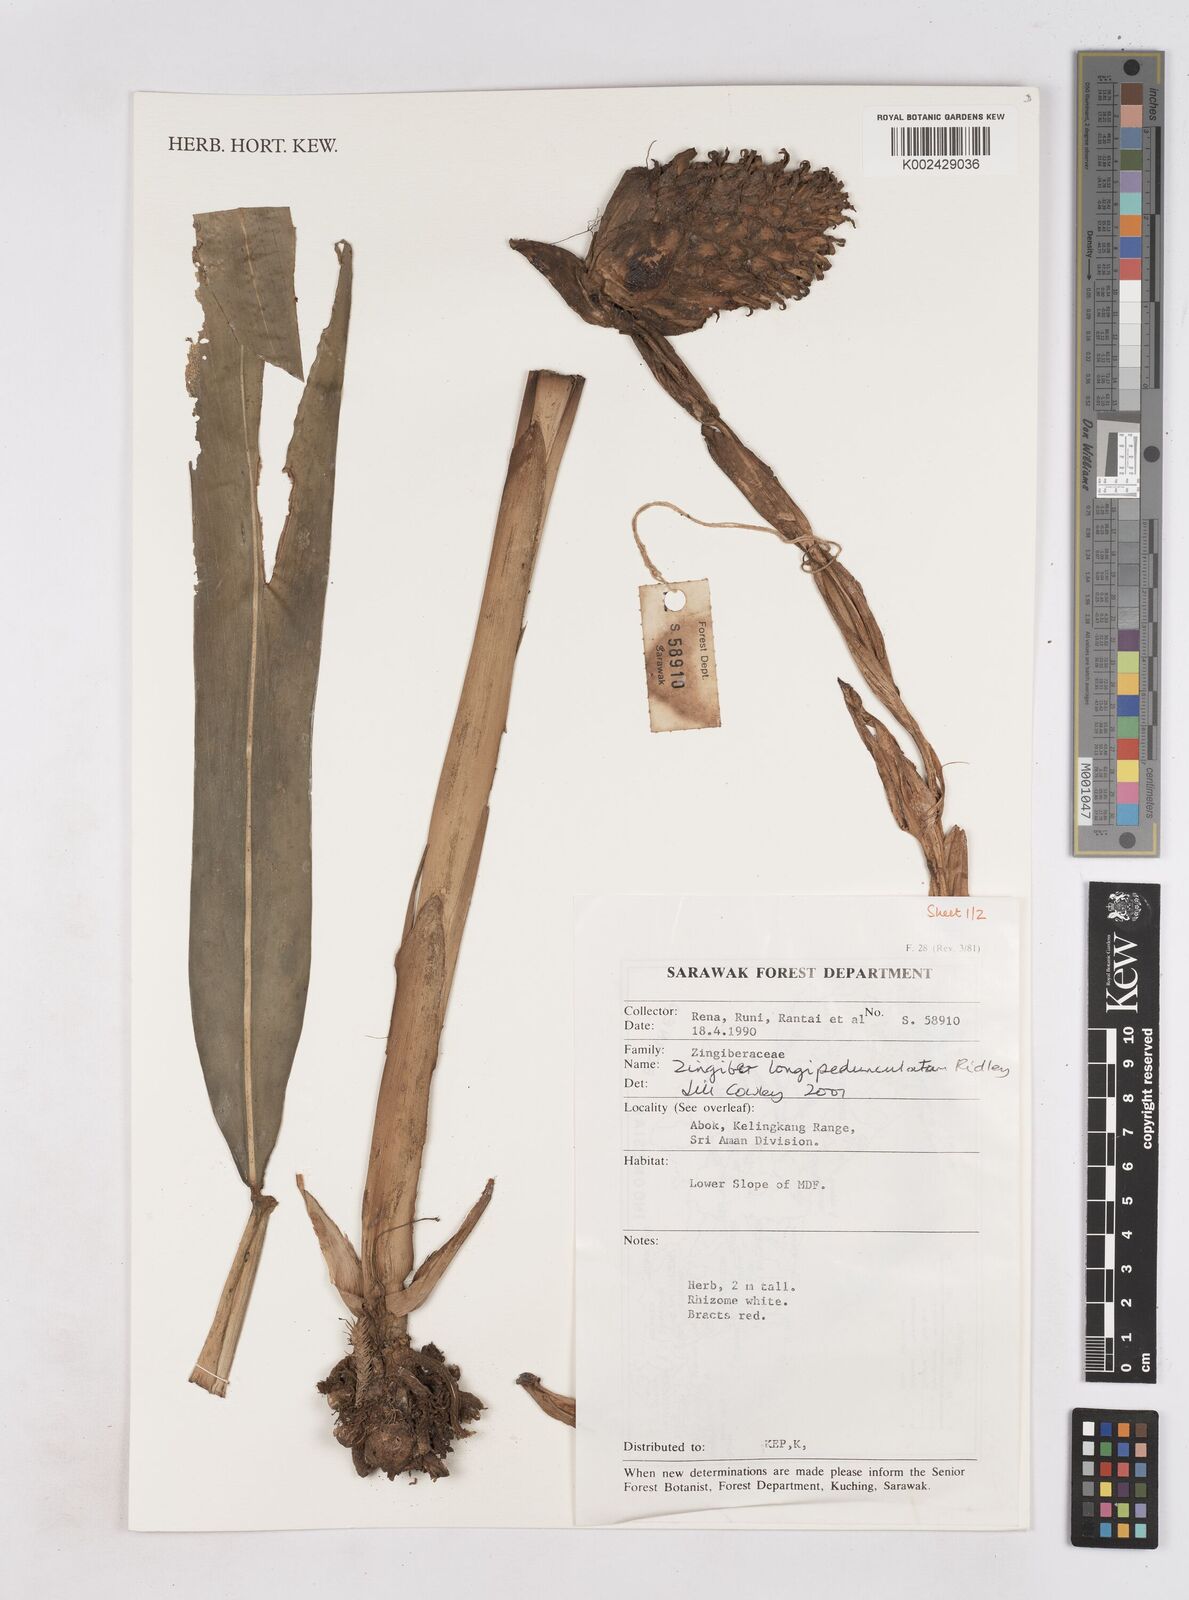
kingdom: Plantae
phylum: Tracheophyta
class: Liliopsida
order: Zingiberales
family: Zingiberaceae
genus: Zingiber
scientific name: Zingiber longipedunculatum
